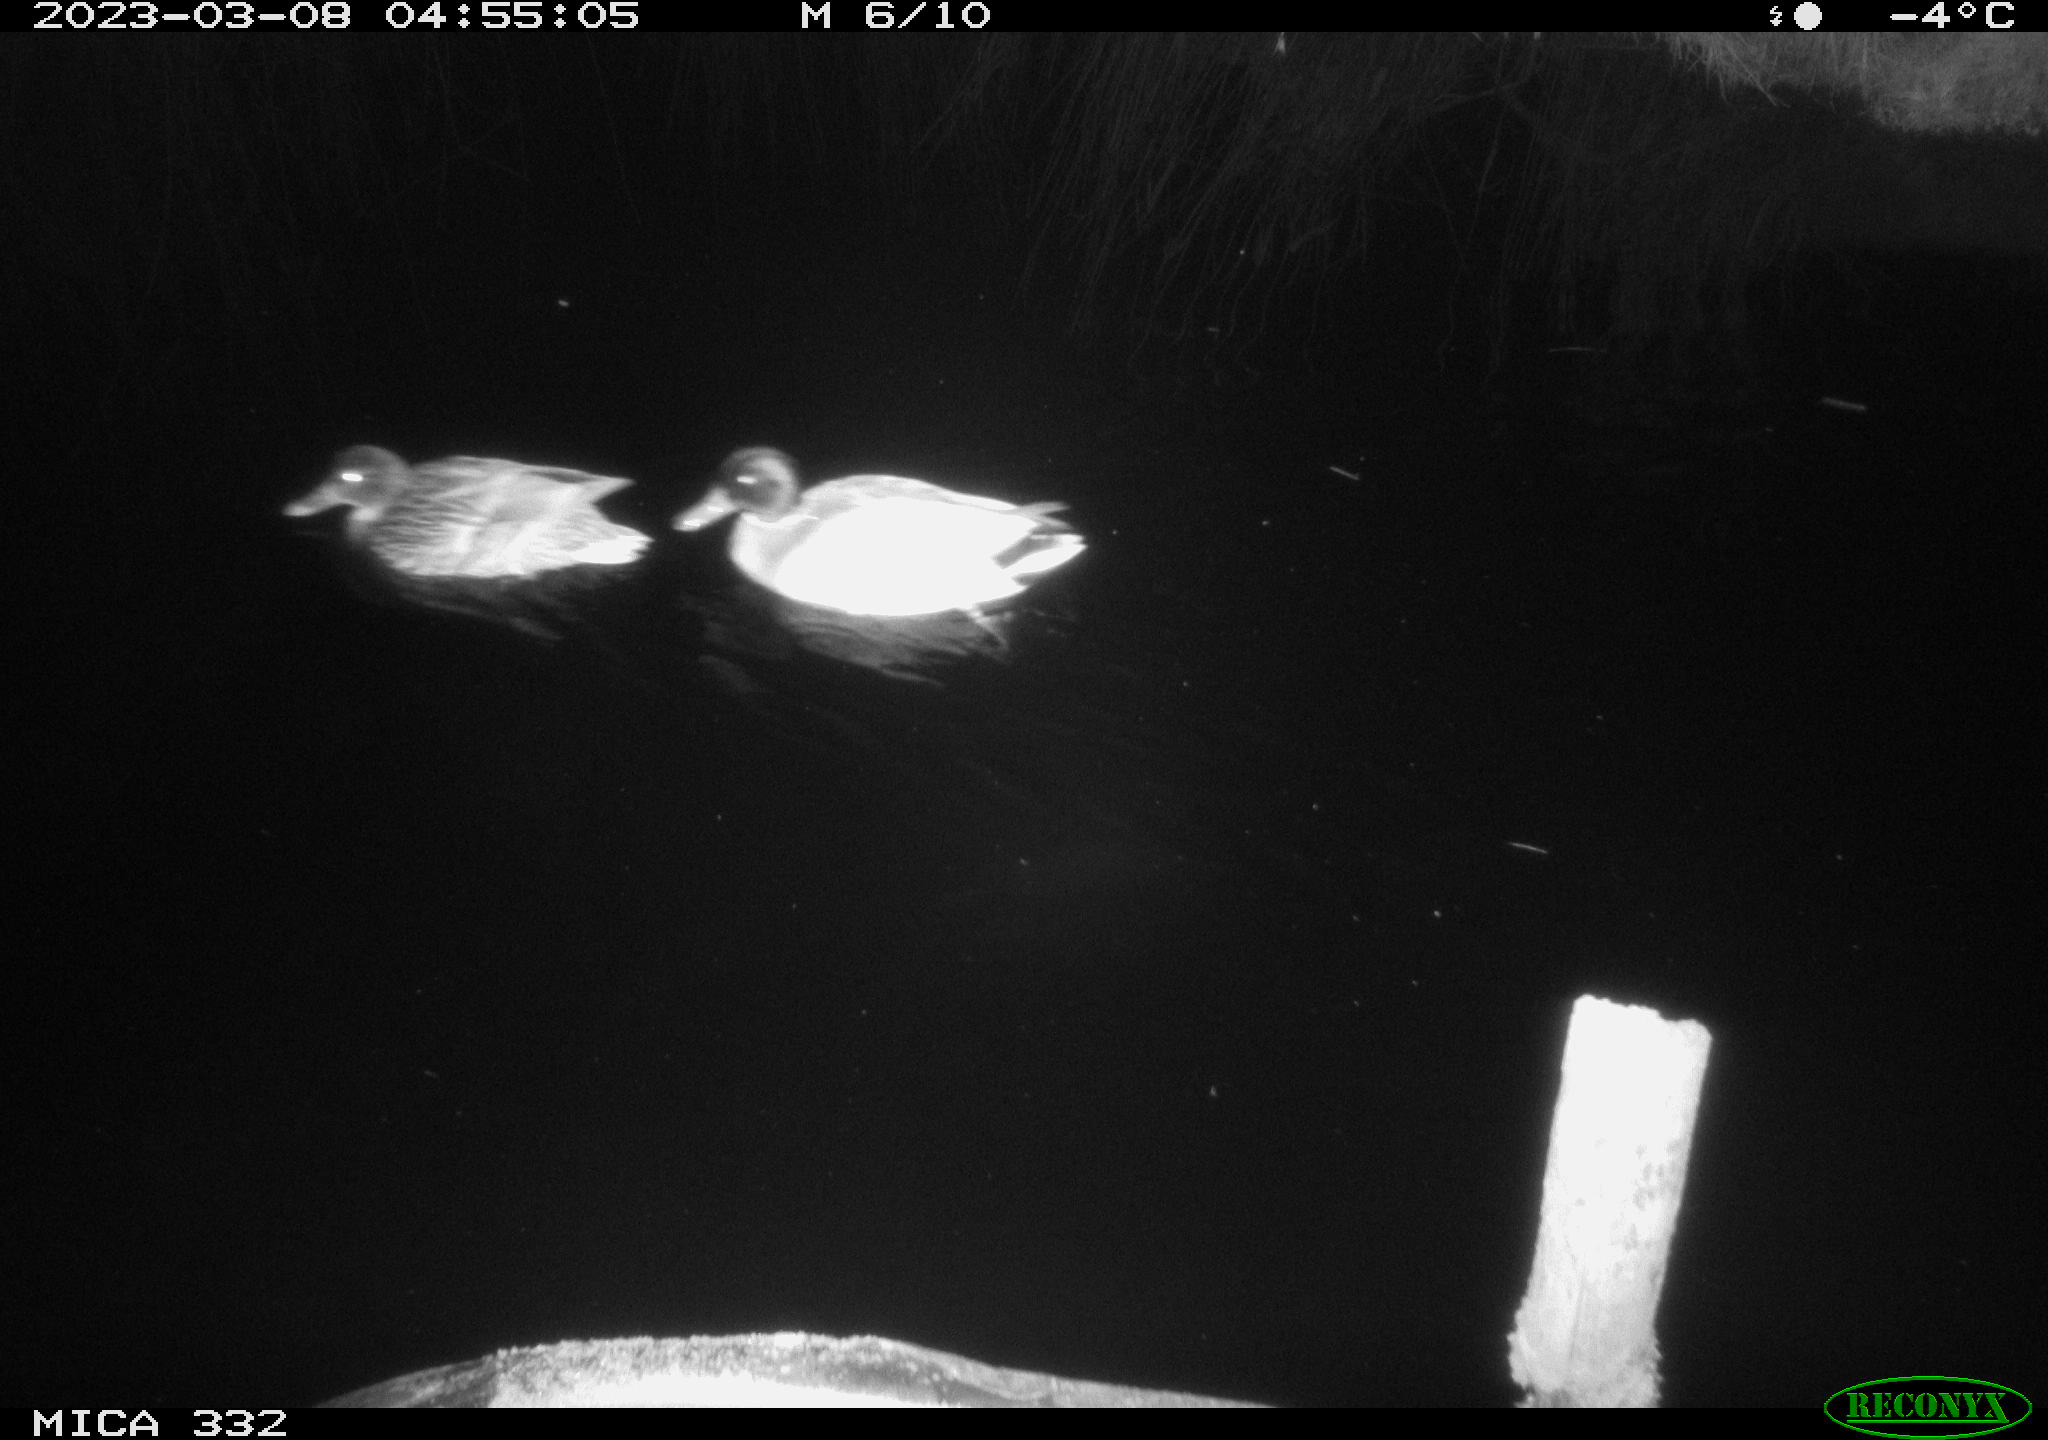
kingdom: Animalia
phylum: Chordata
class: Aves
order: Anseriformes
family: Anatidae
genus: Anas
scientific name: Anas
